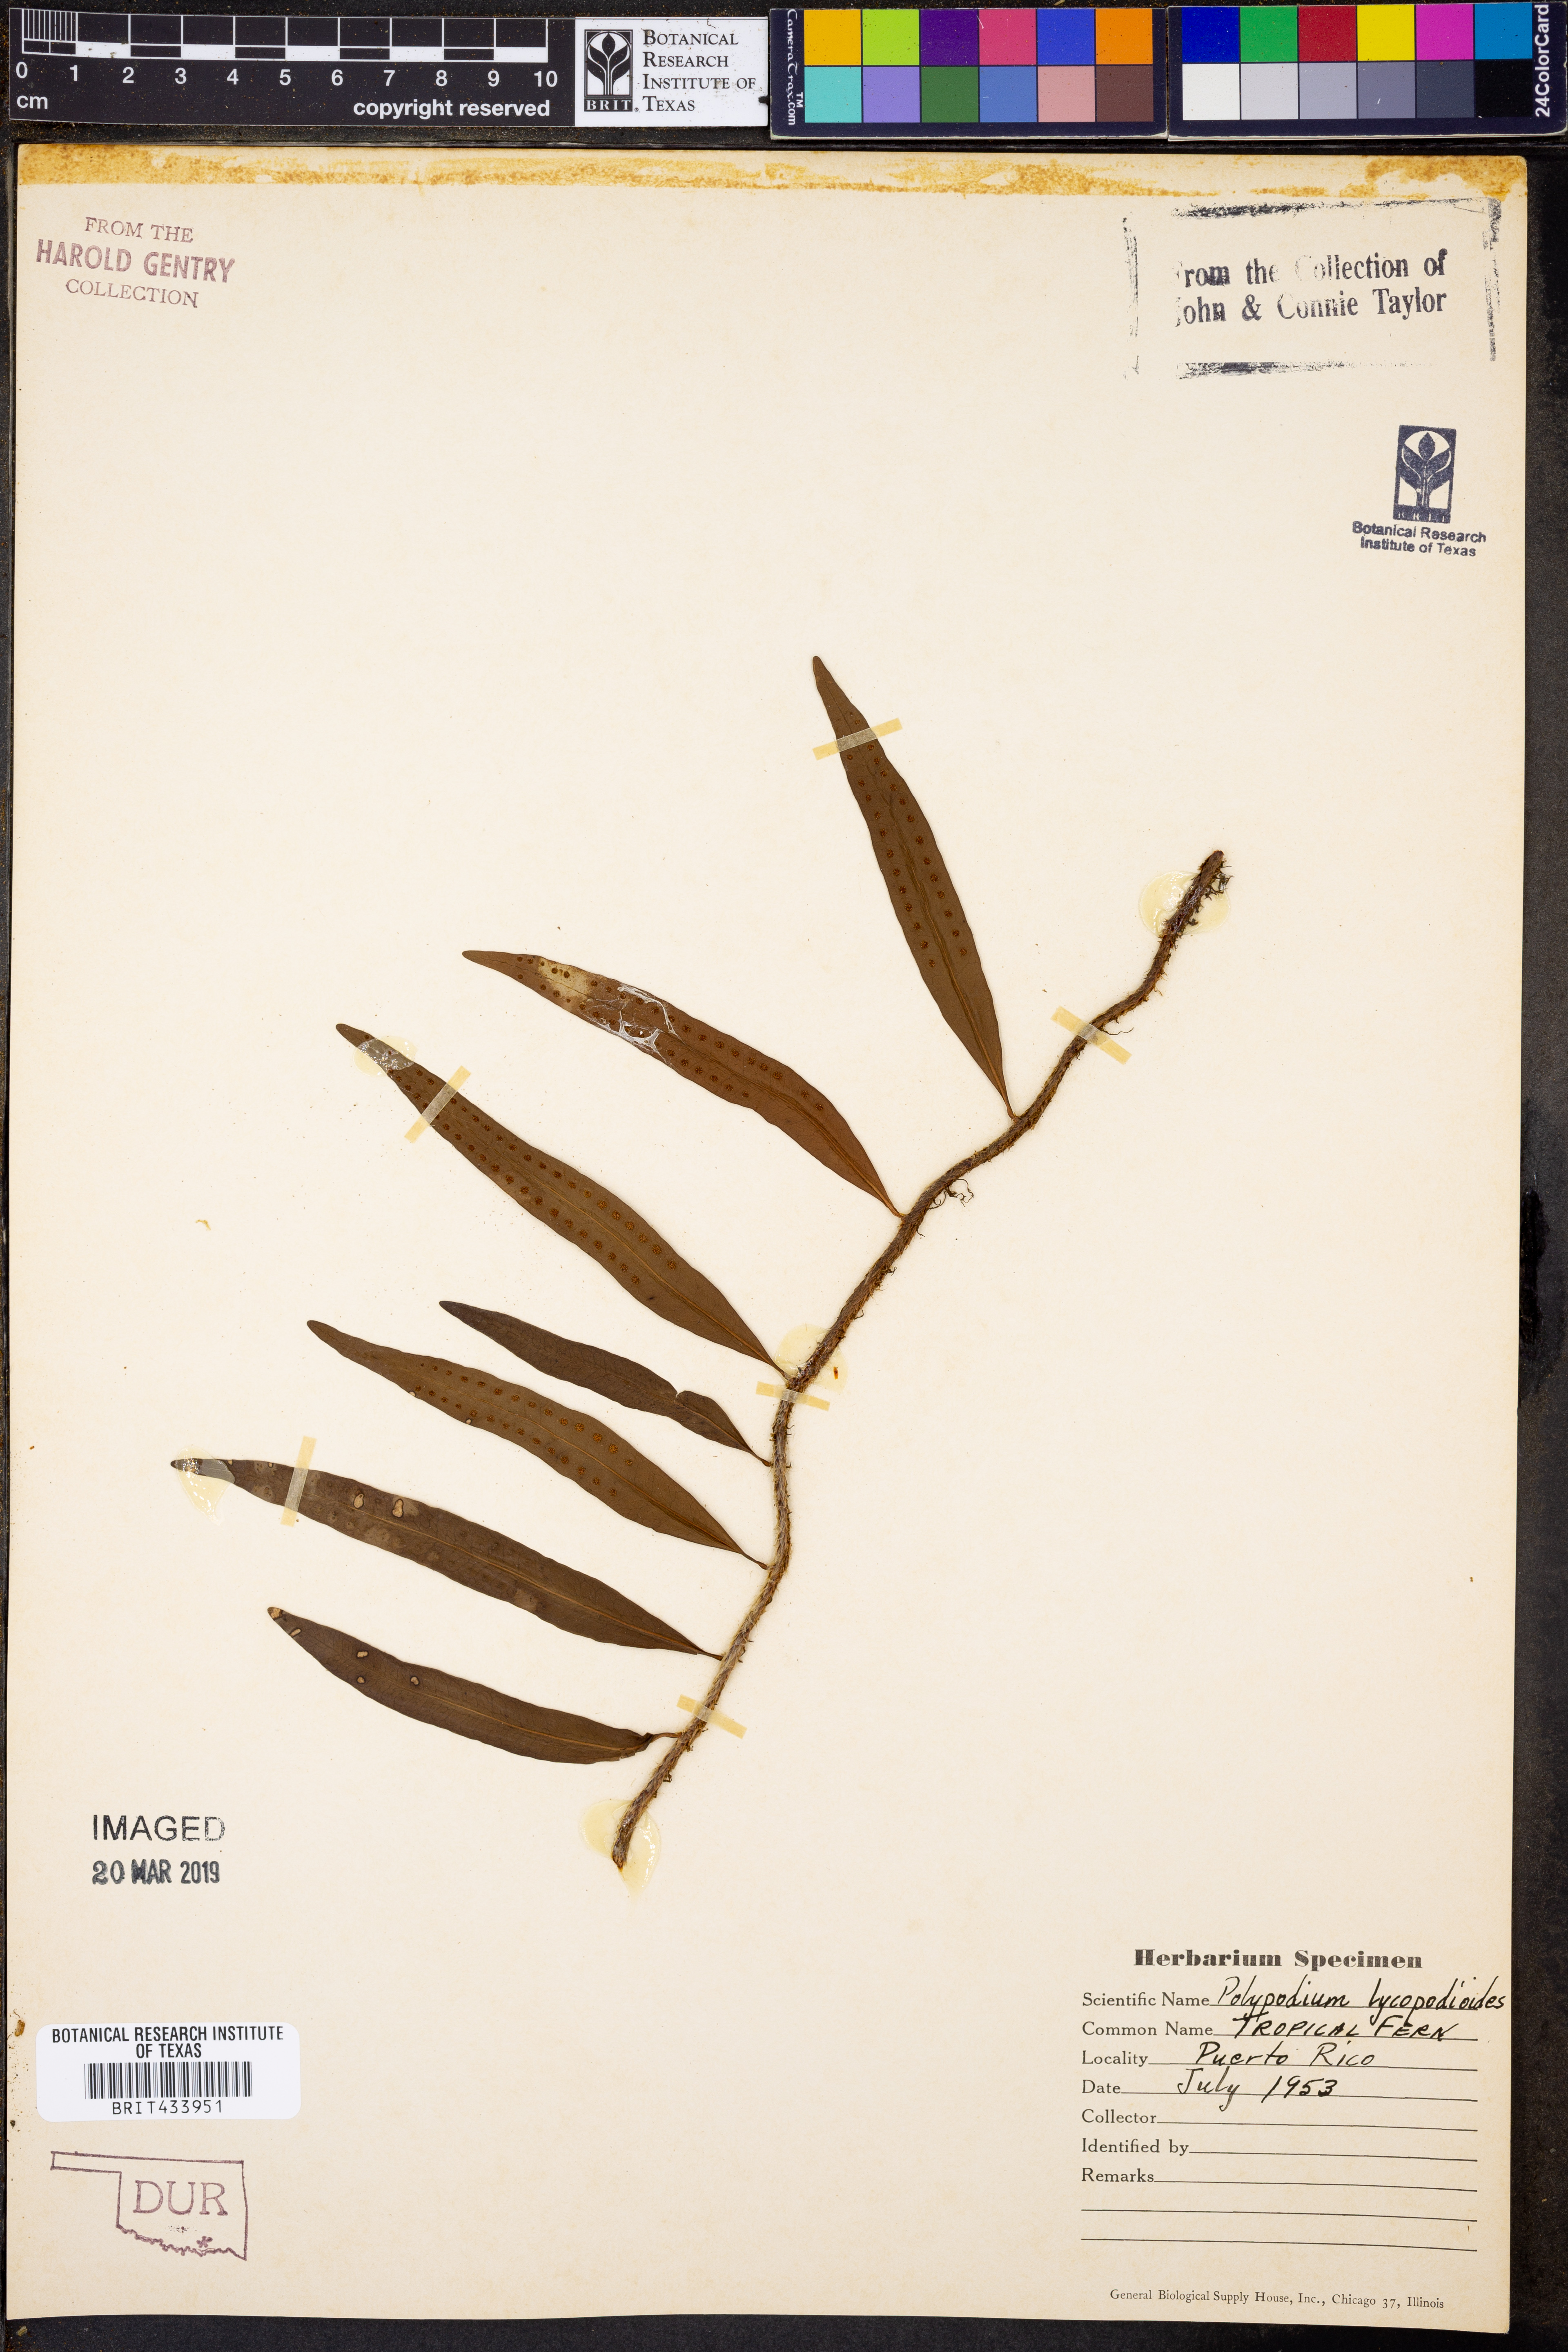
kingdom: Plantae
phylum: Tracheophyta
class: Polypodiopsida
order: Polypodiales
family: Polypodiaceae
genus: Microgramma
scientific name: Microgramma lycopodioides
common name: Bastard catclaw
